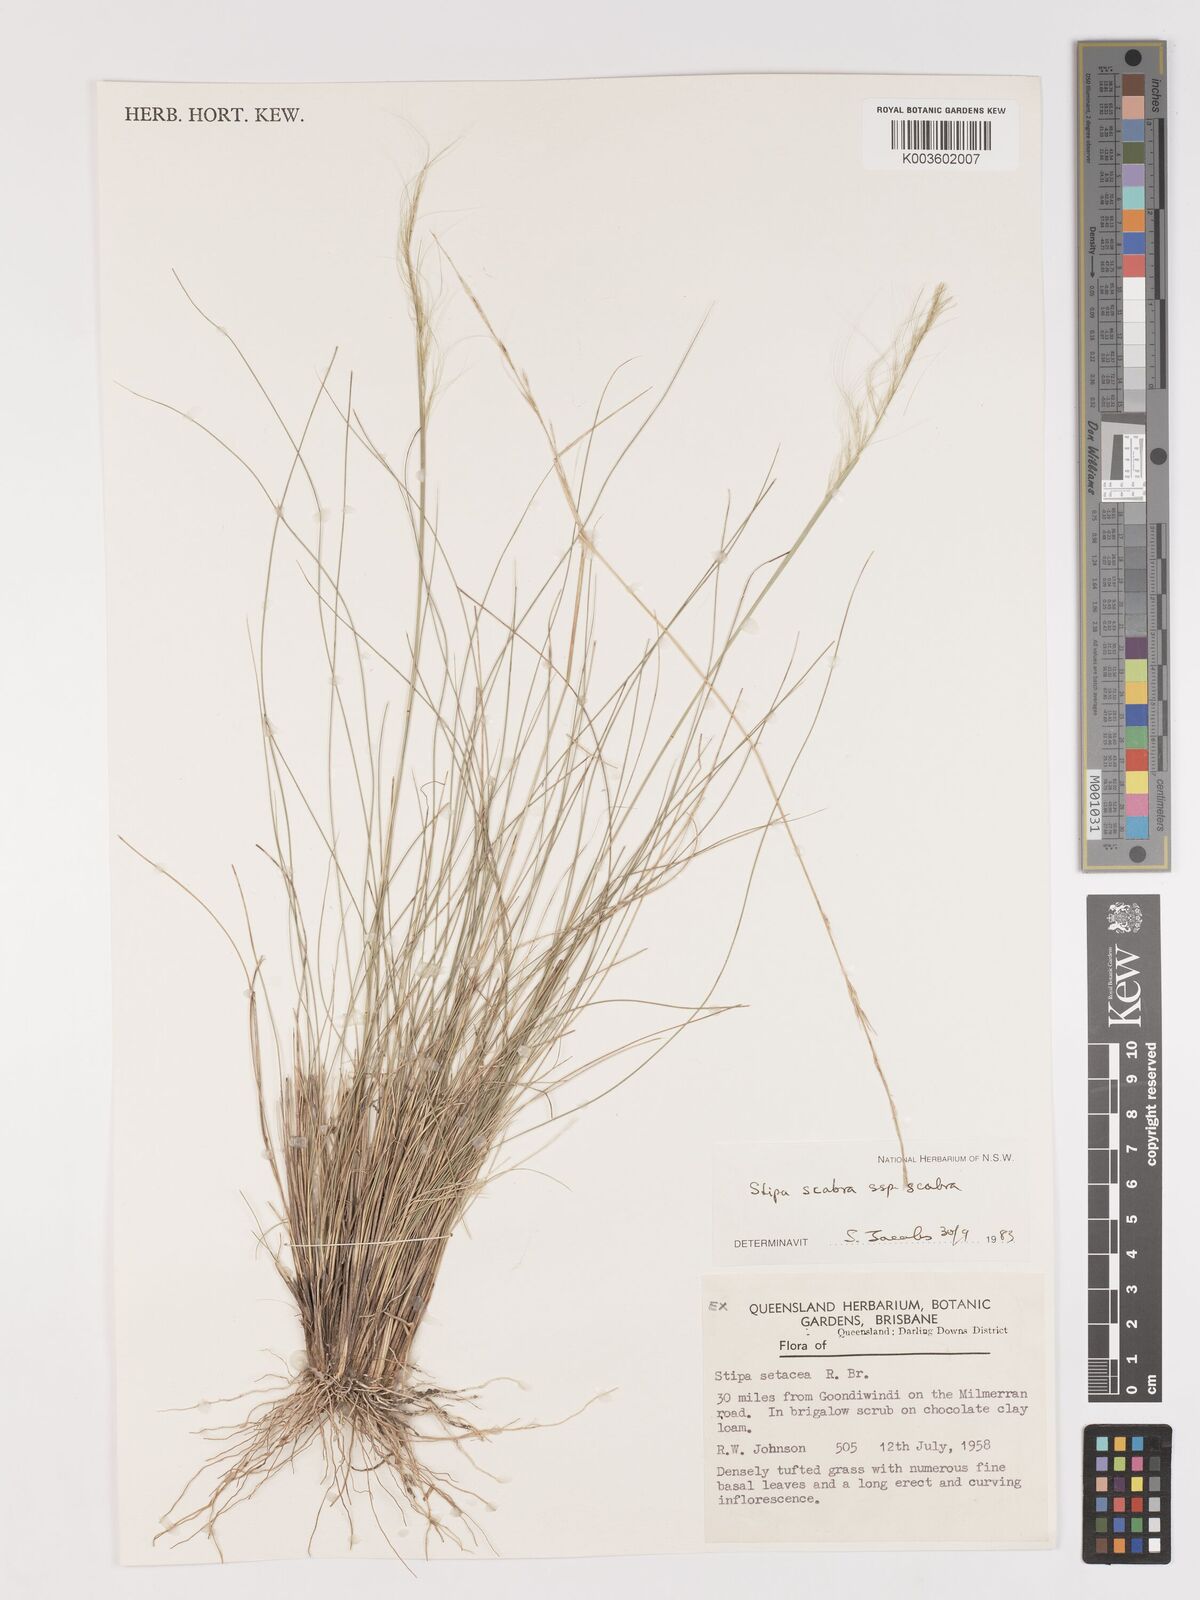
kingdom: Plantae
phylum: Tracheophyta
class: Liliopsida
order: Poales
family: Poaceae
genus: Austrostipa
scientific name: Austrostipa scabra
